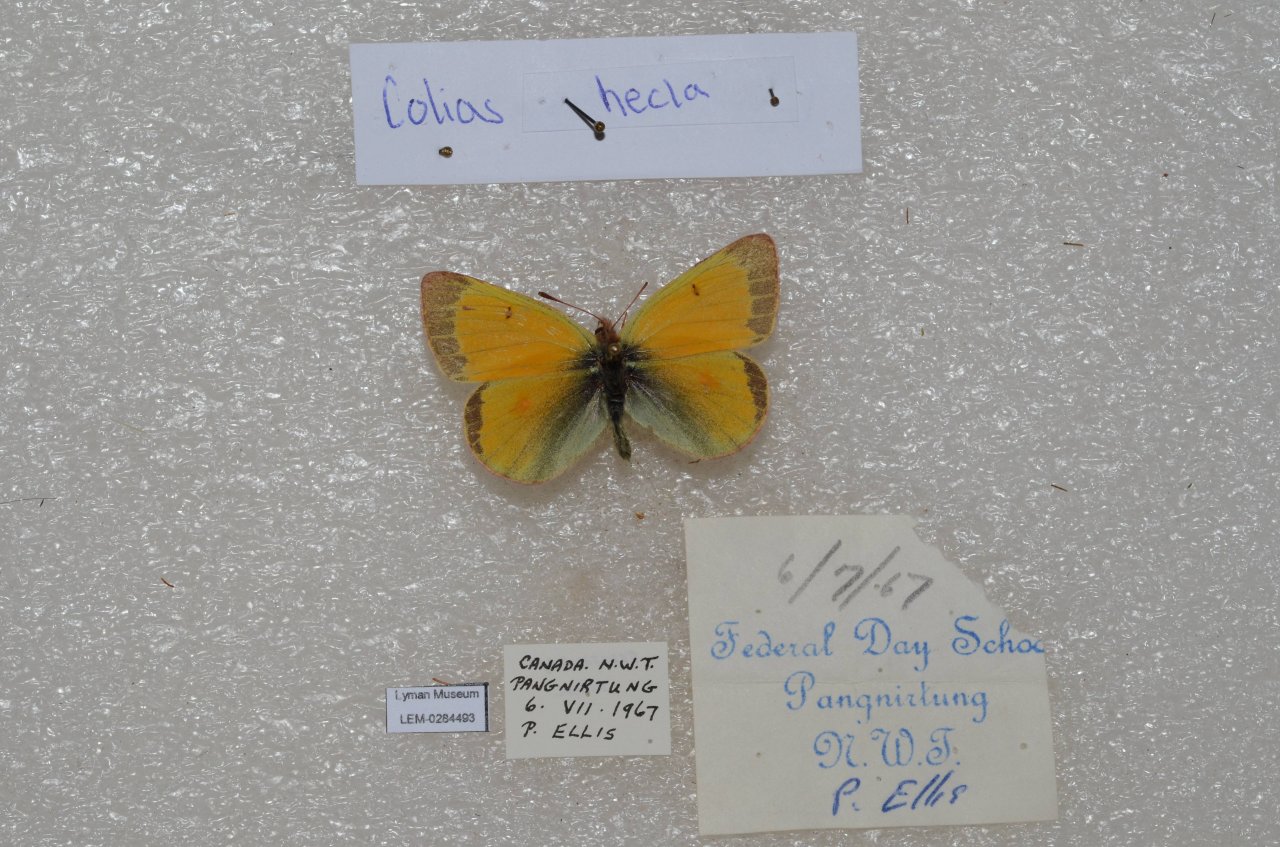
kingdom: Animalia
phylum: Arthropoda
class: Insecta
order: Lepidoptera
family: Pieridae
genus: Colias
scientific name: Colias hecla
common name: Hecla Sulphur
